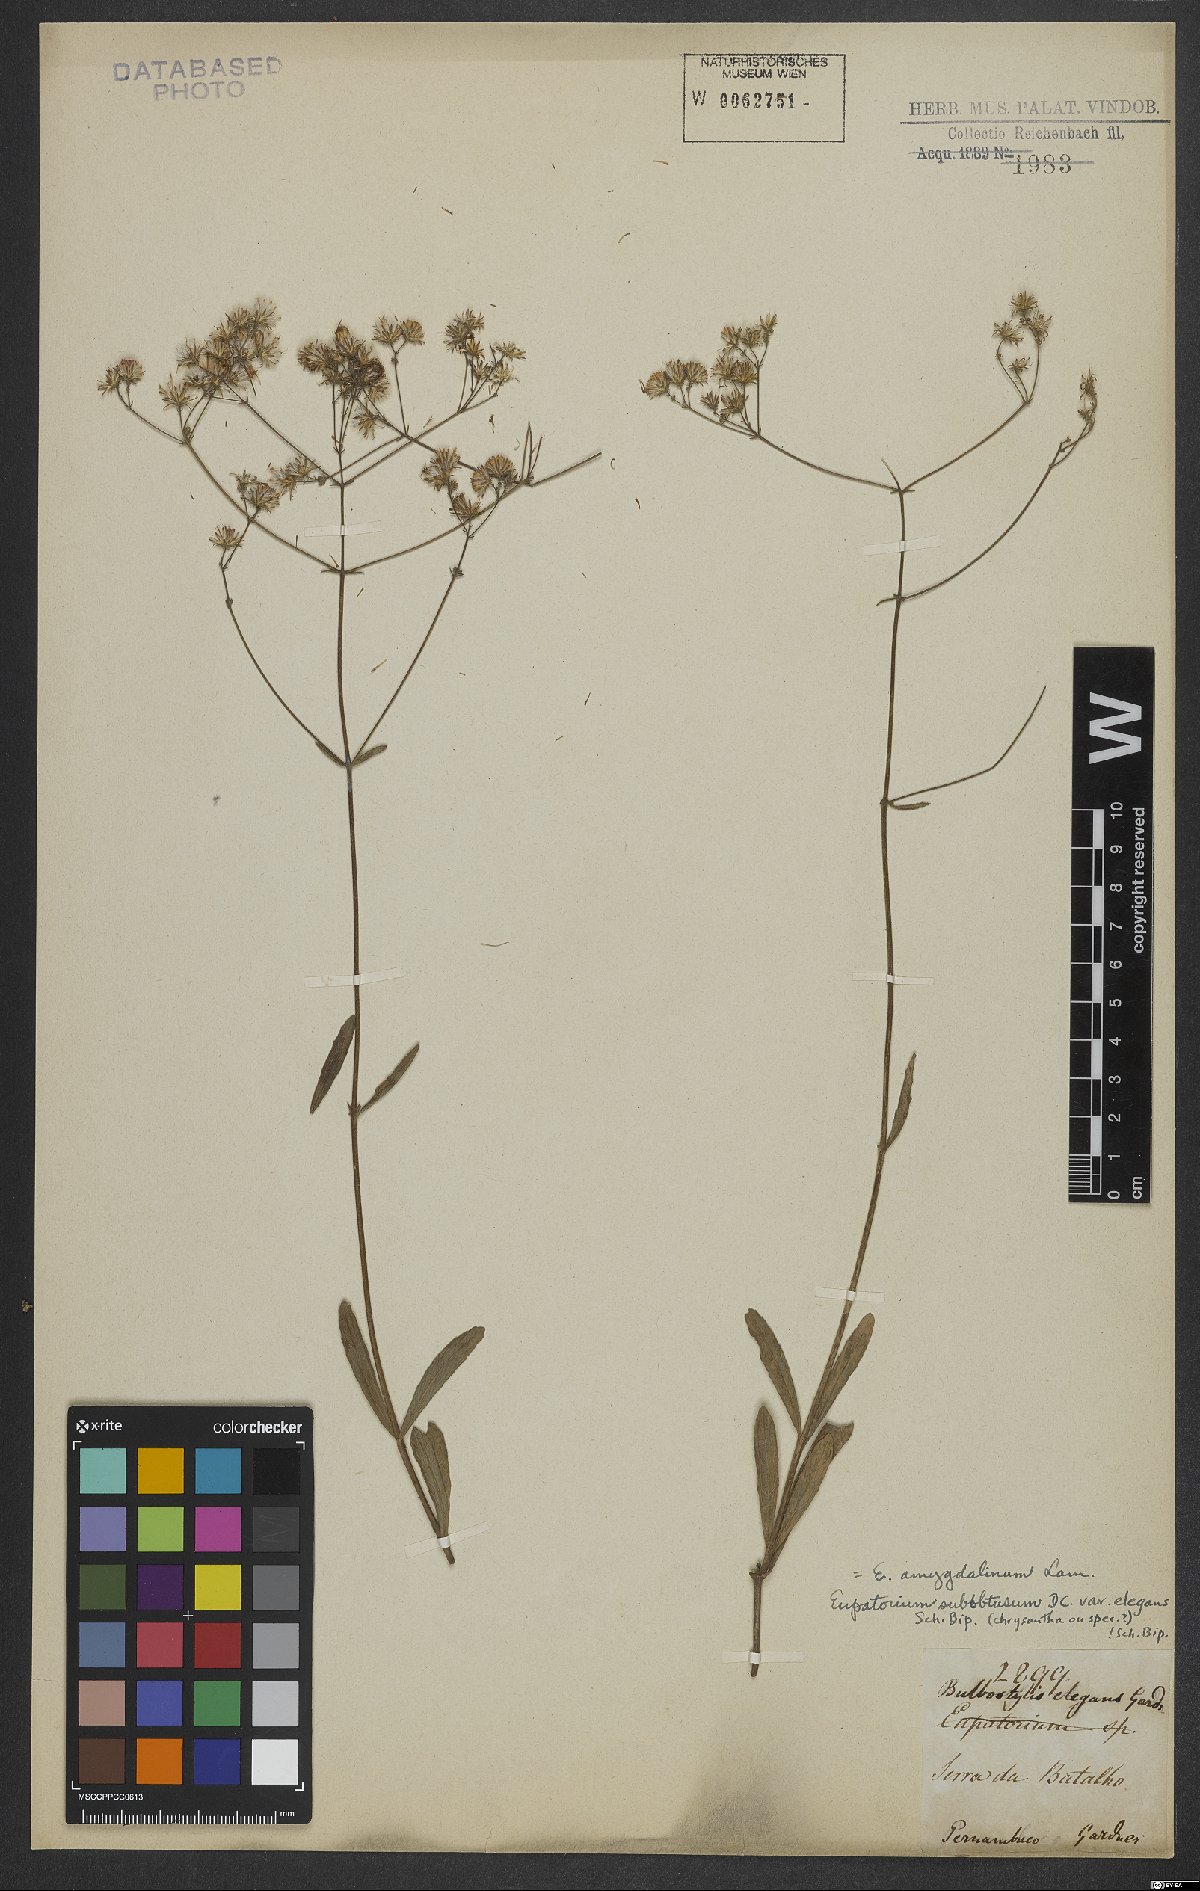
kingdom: Plantae
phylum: Tracheophyta
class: Magnoliopsida
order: Asterales
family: Asteraceae
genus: Ayapana
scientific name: Ayapana amygdalina
